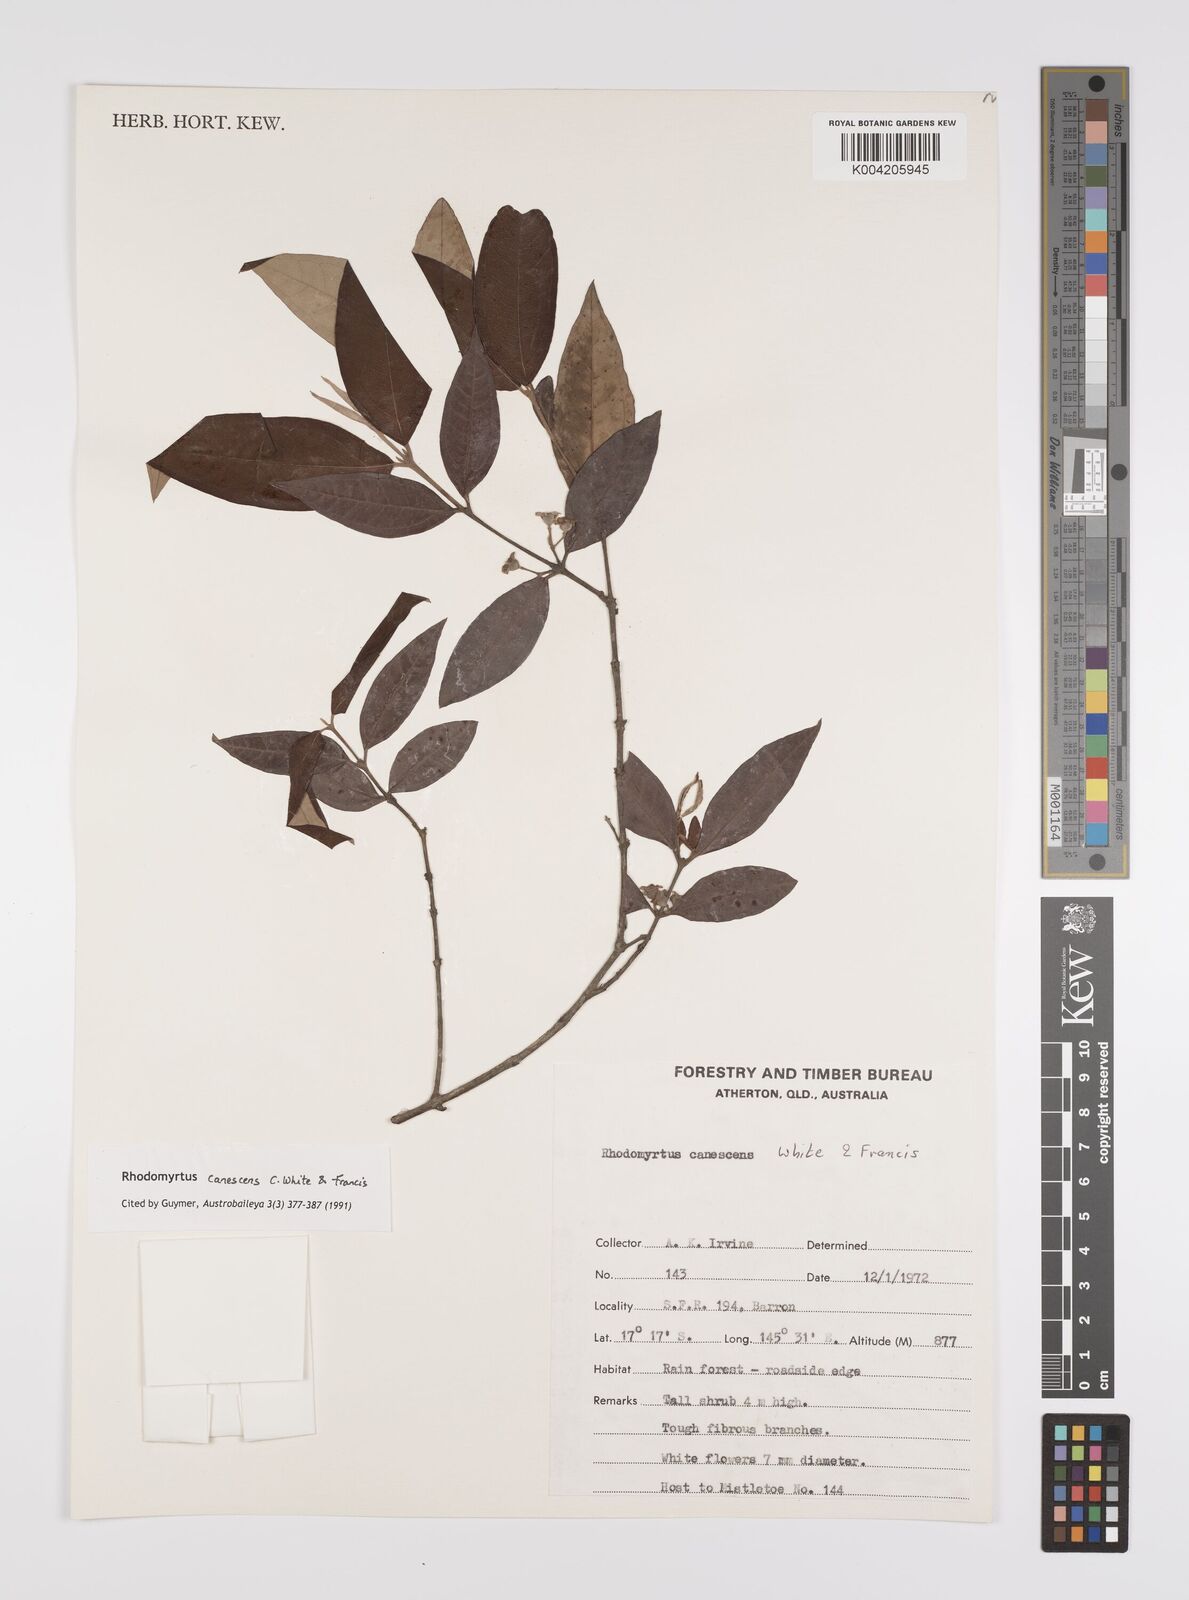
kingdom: Plantae
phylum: Tracheophyta
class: Magnoliopsida
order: Myrtales
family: Myrtaceae
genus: Rhodomyrtus
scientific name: Rhodomyrtus trineura
